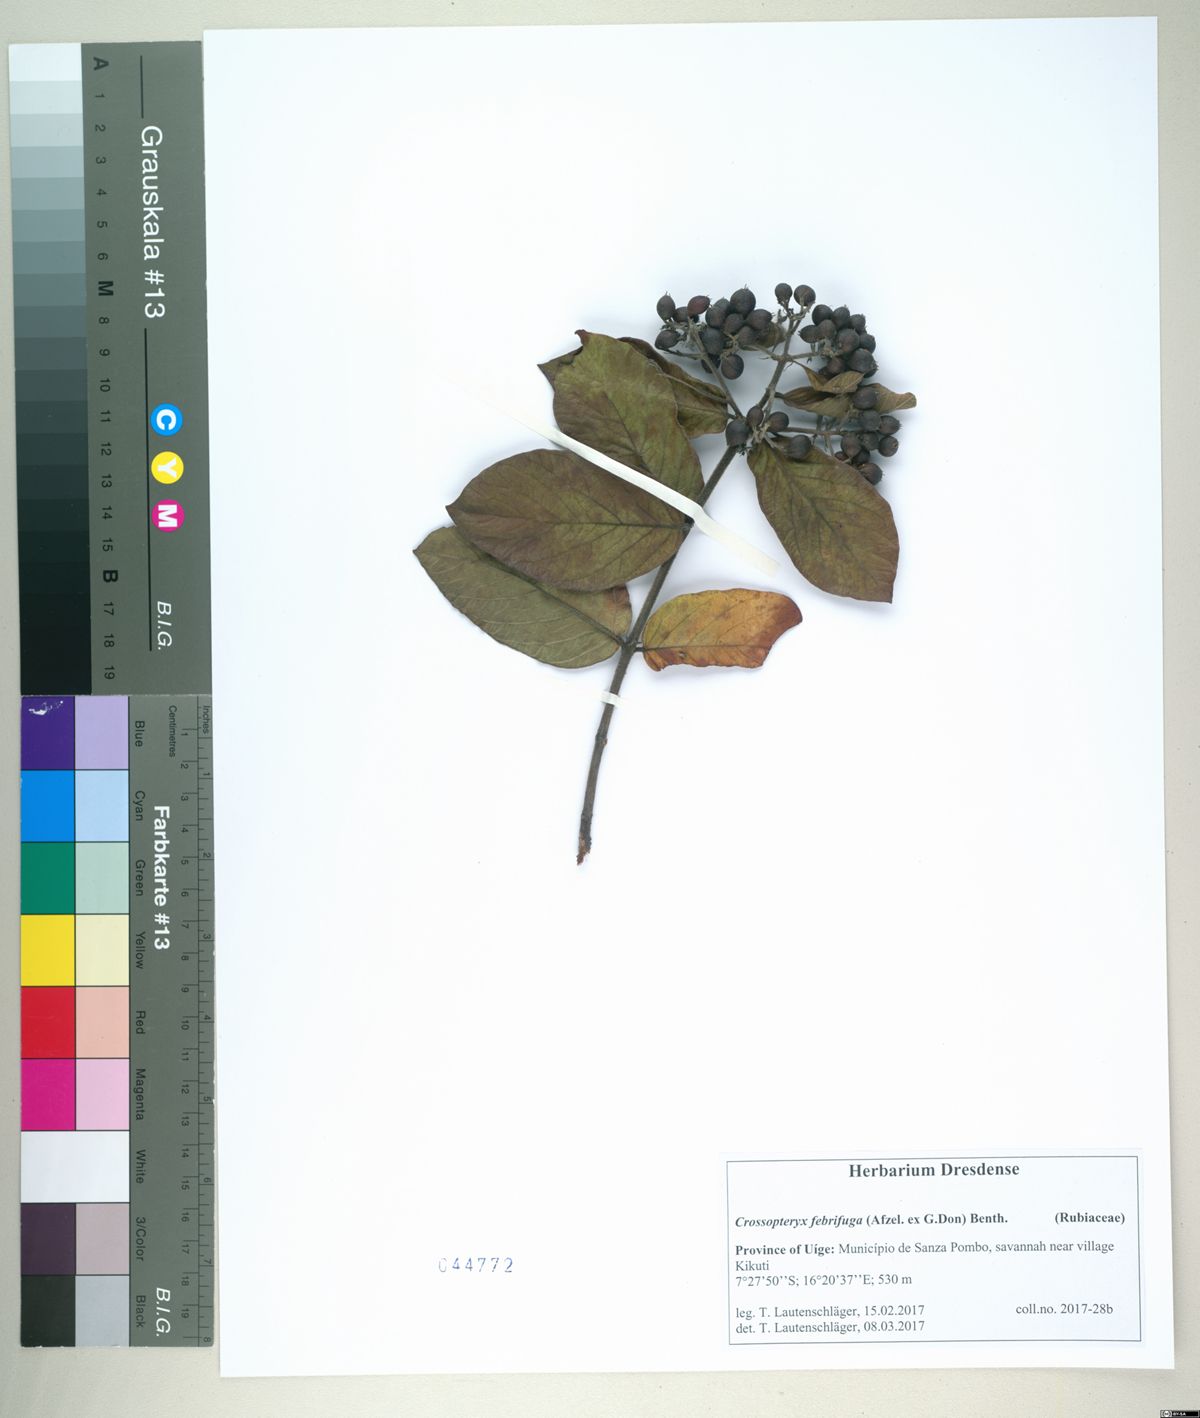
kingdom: Plantae
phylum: Tracheophyta
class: Magnoliopsida
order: Gentianales
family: Rubiaceae
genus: Crossopteryx
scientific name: Crossopteryx febrifuga
